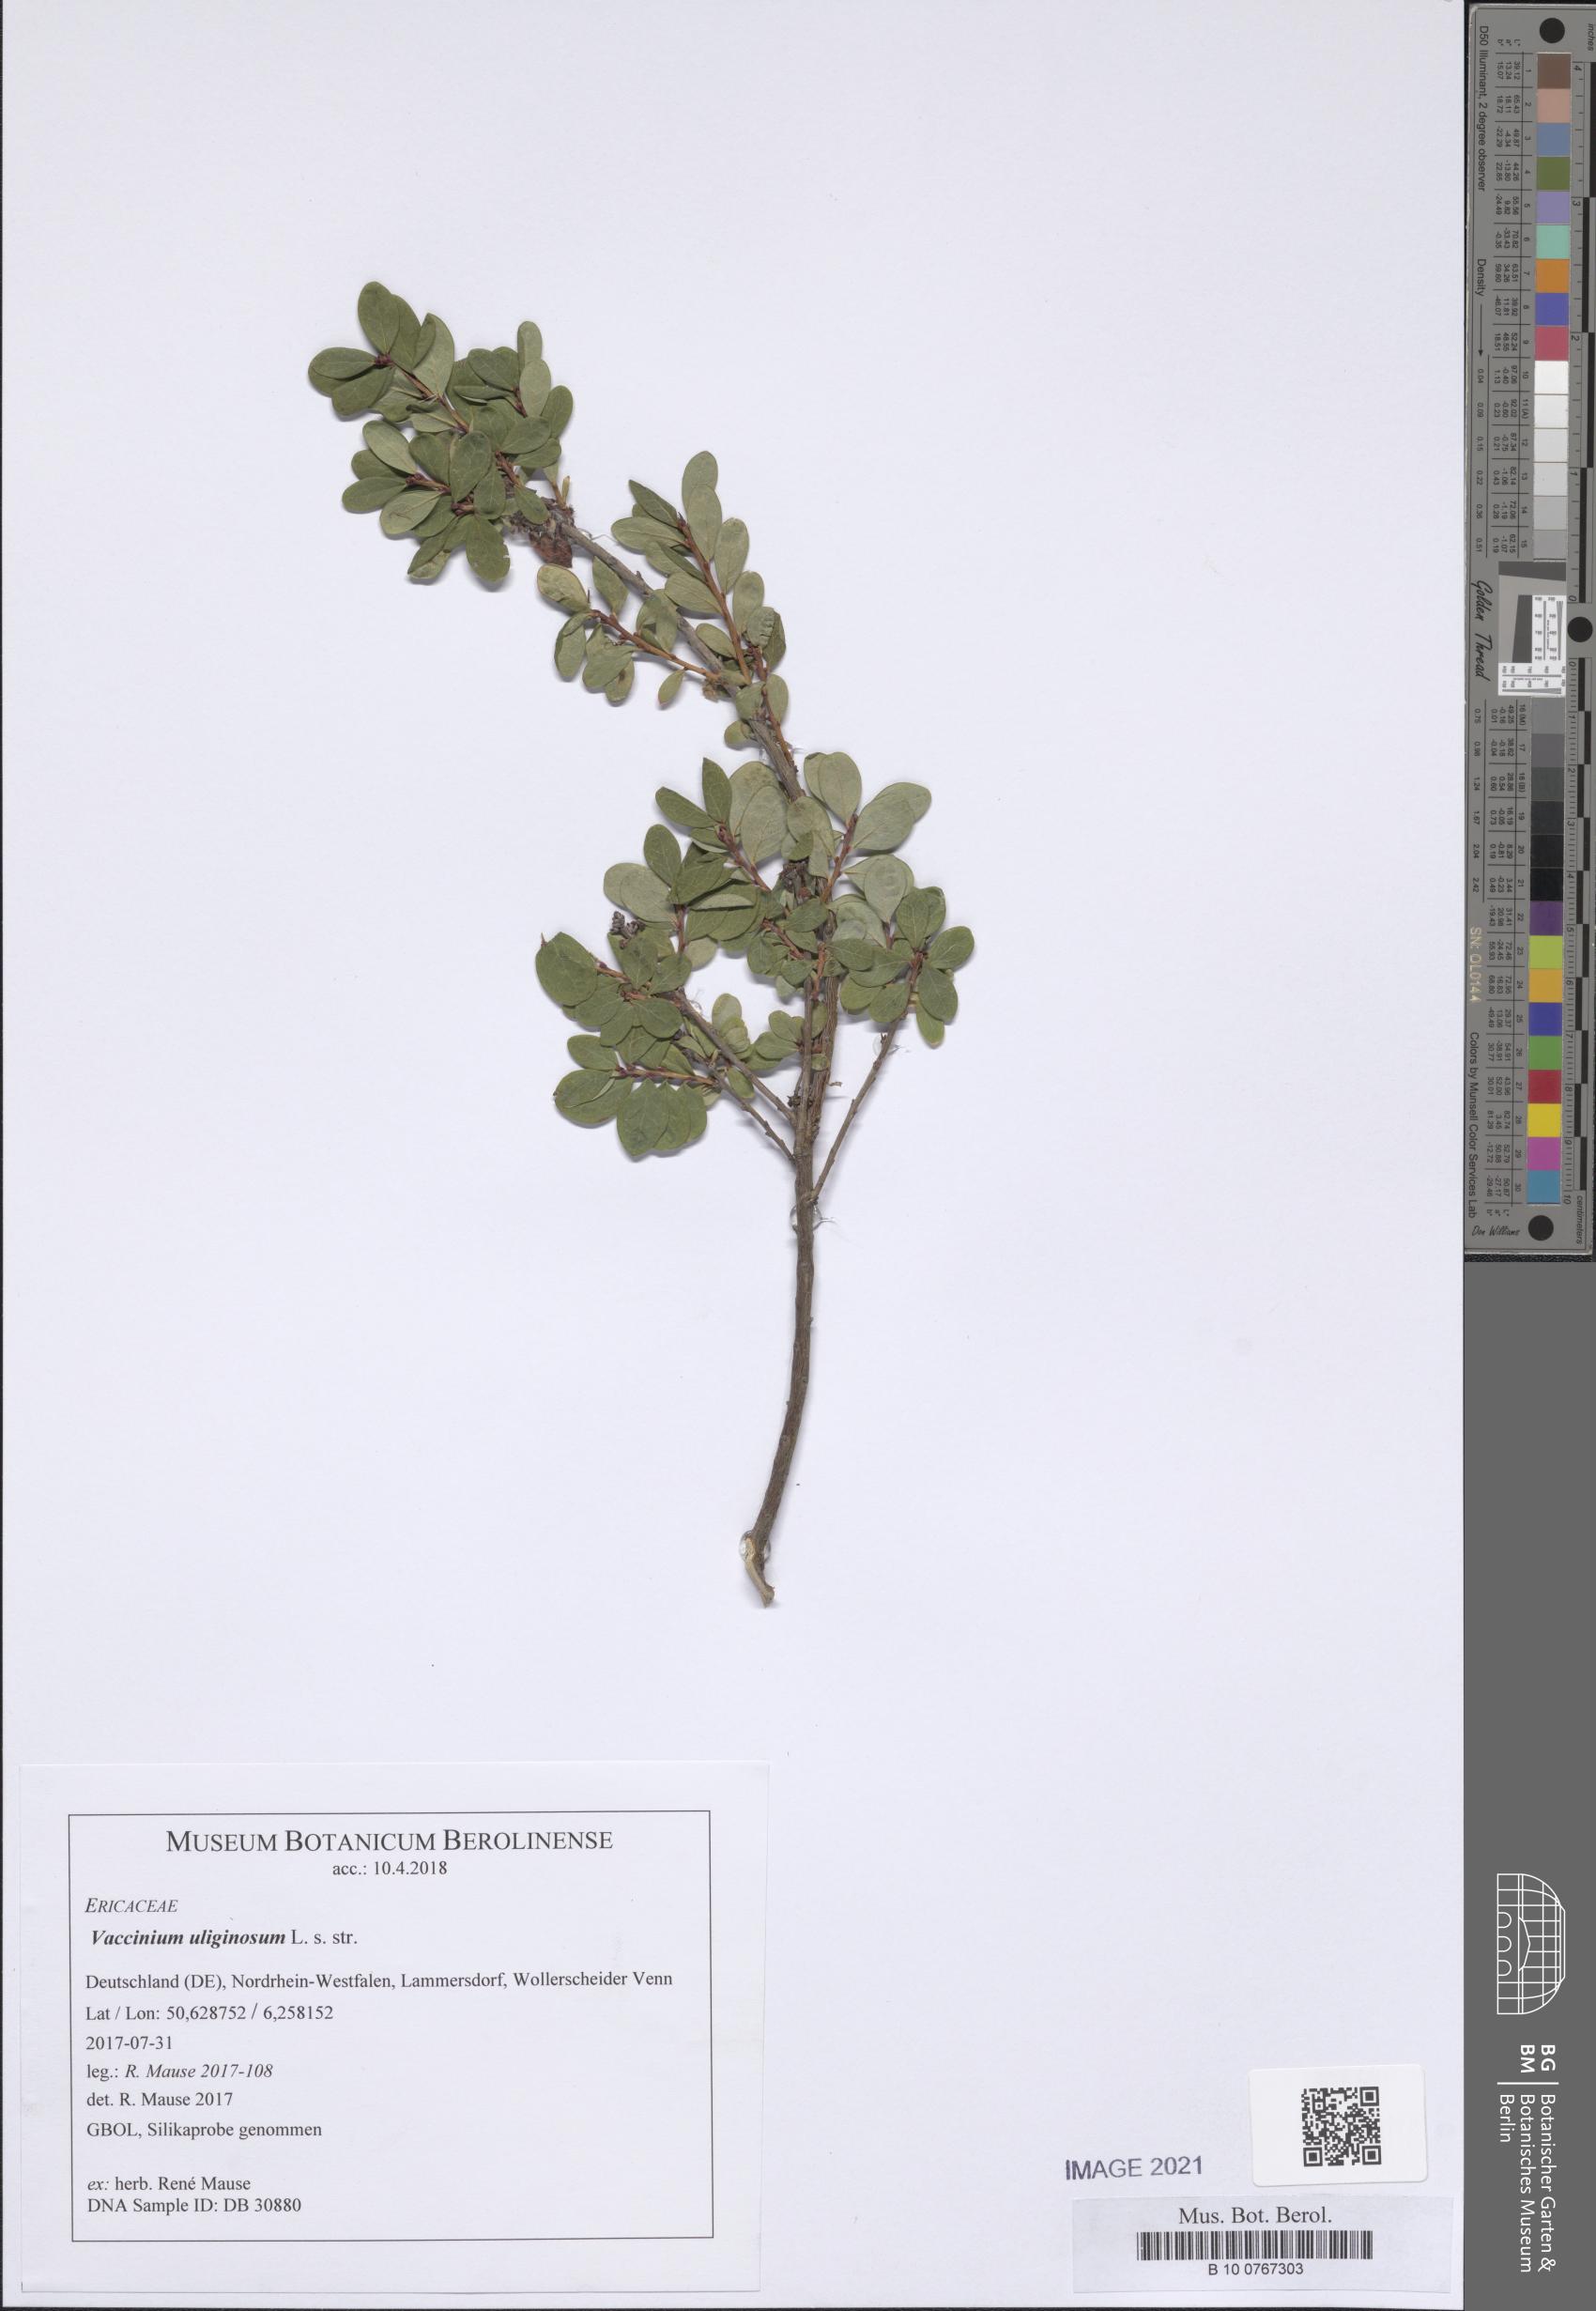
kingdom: Plantae
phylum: Tracheophyta
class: Magnoliopsida
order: Ericales
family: Ericaceae
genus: Vaccinium
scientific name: Vaccinium uliginosum
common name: Bog bilberry
